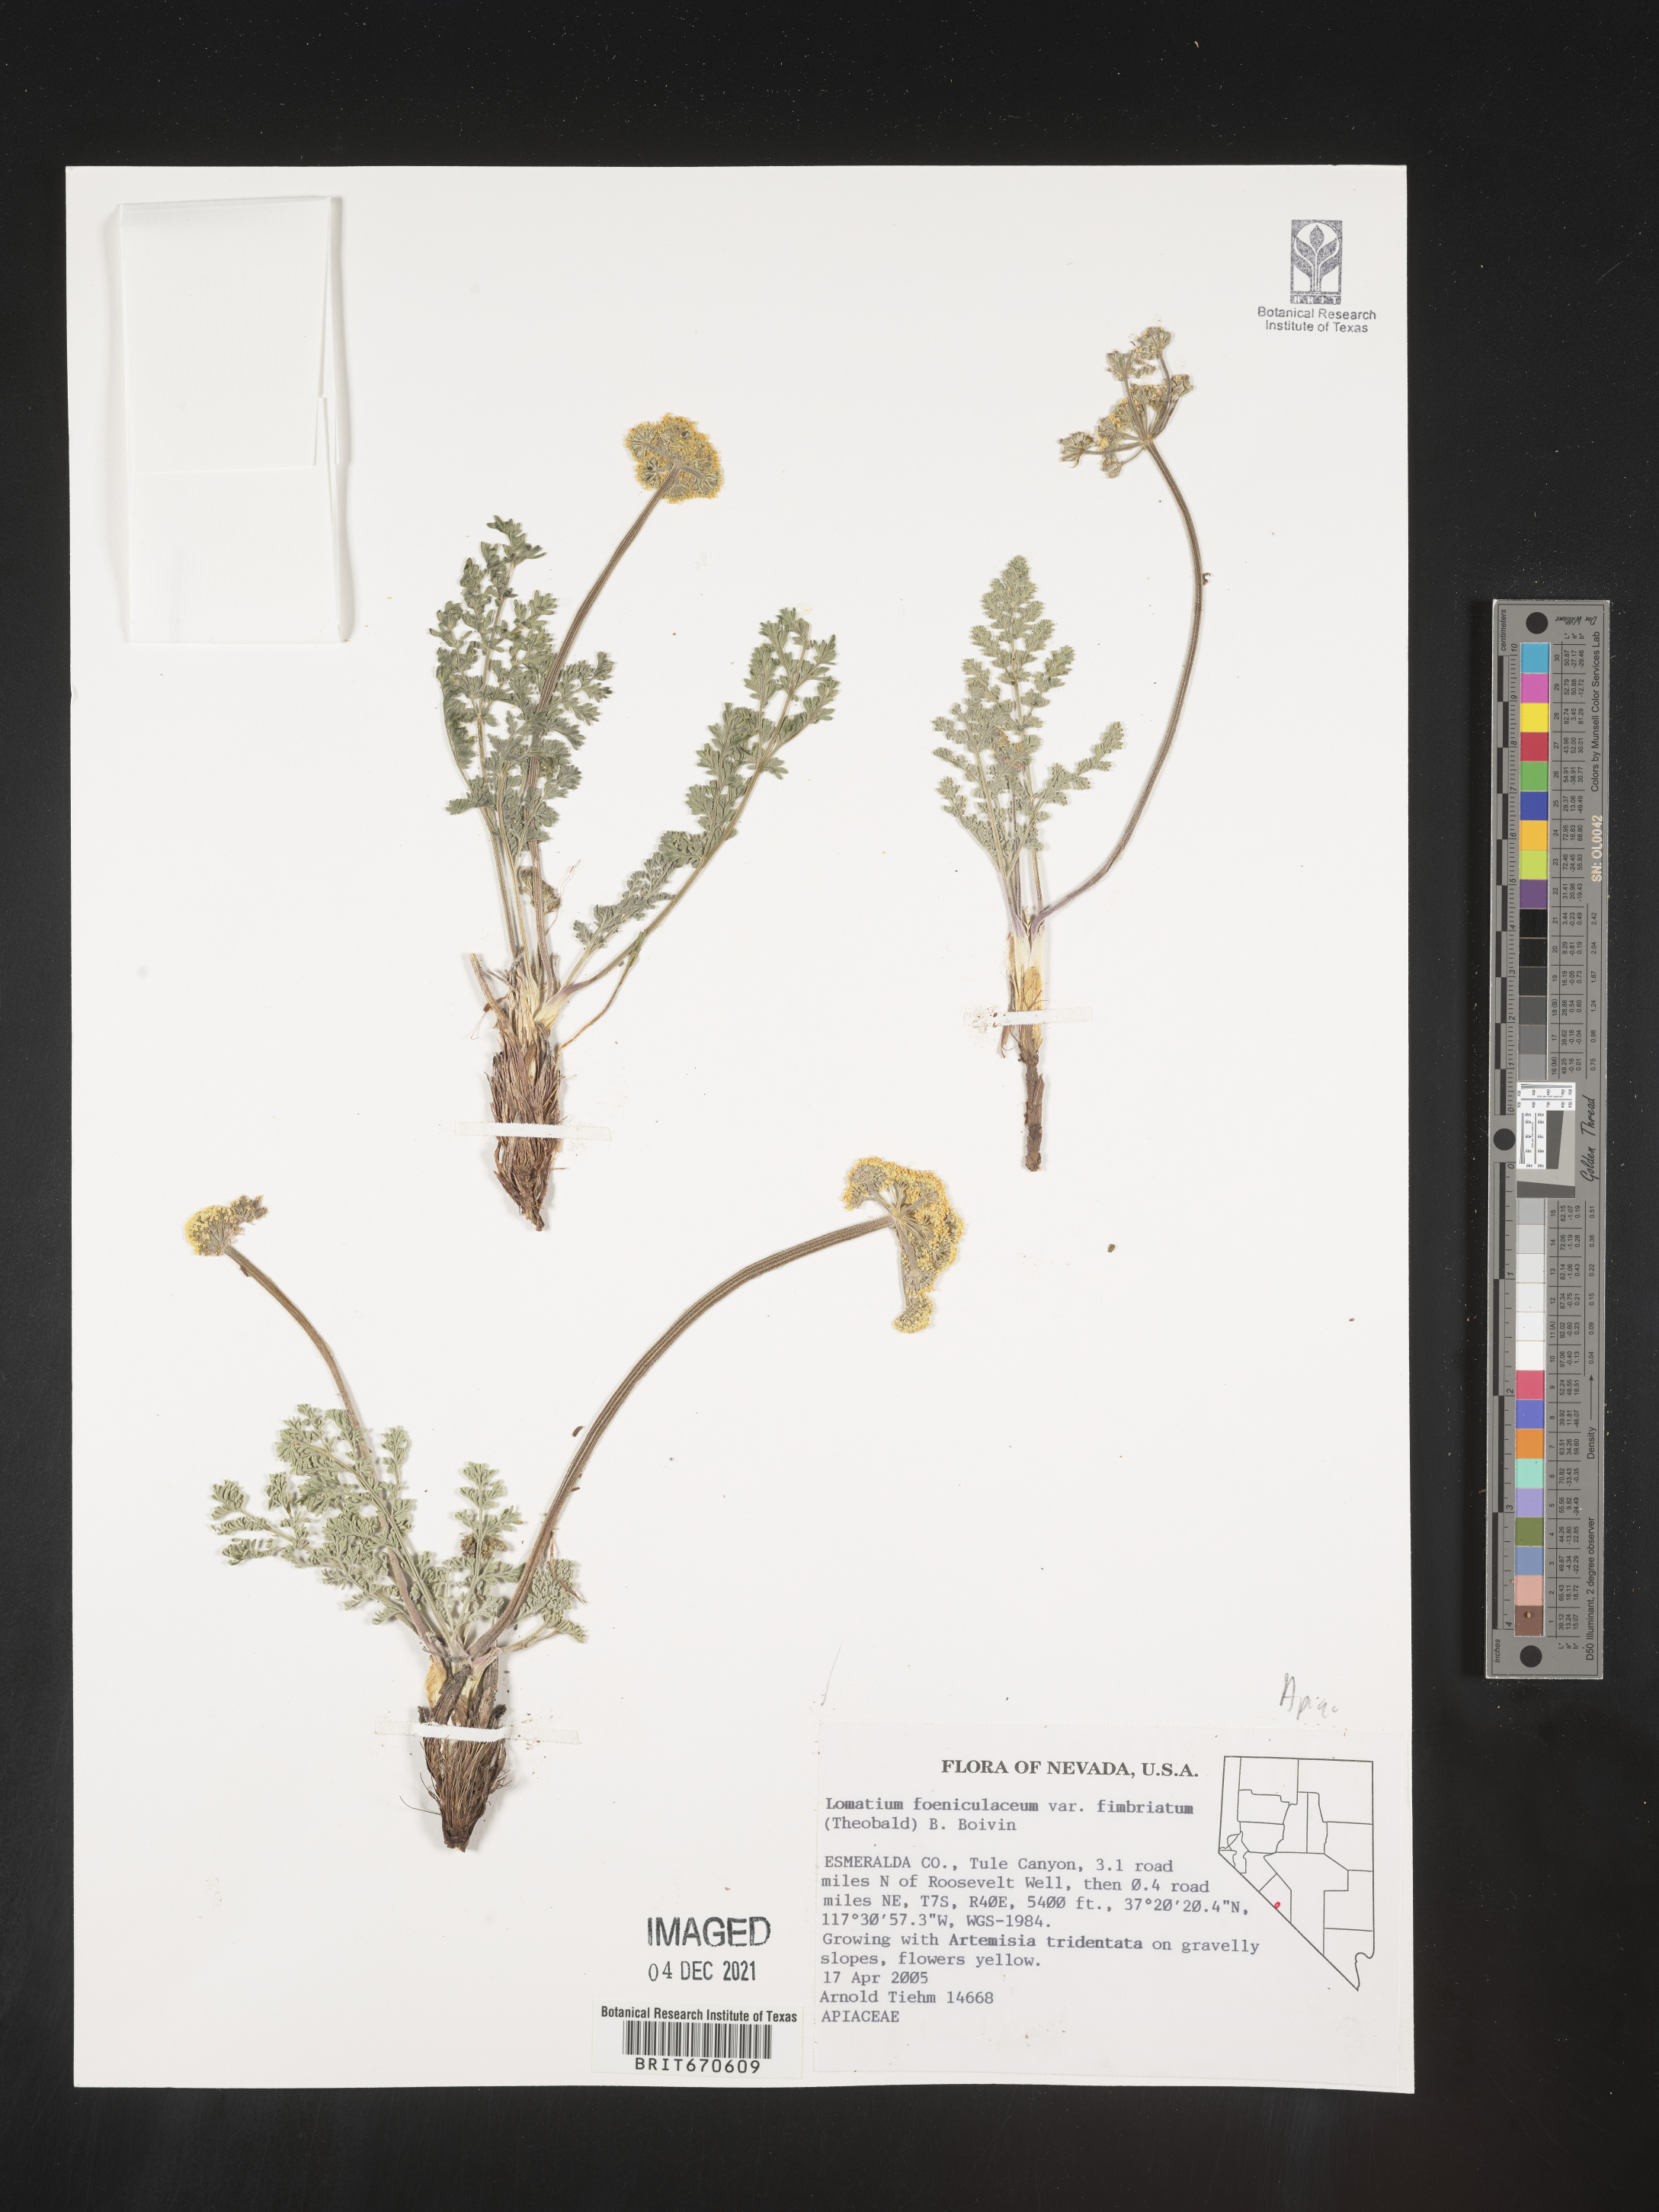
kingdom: Plantae
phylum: Tracheophyta
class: Magnoliopsida
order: Apiales
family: Apiaceae
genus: Lomatium
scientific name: Lomatium foeniculaceum
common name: Desert-parsley
